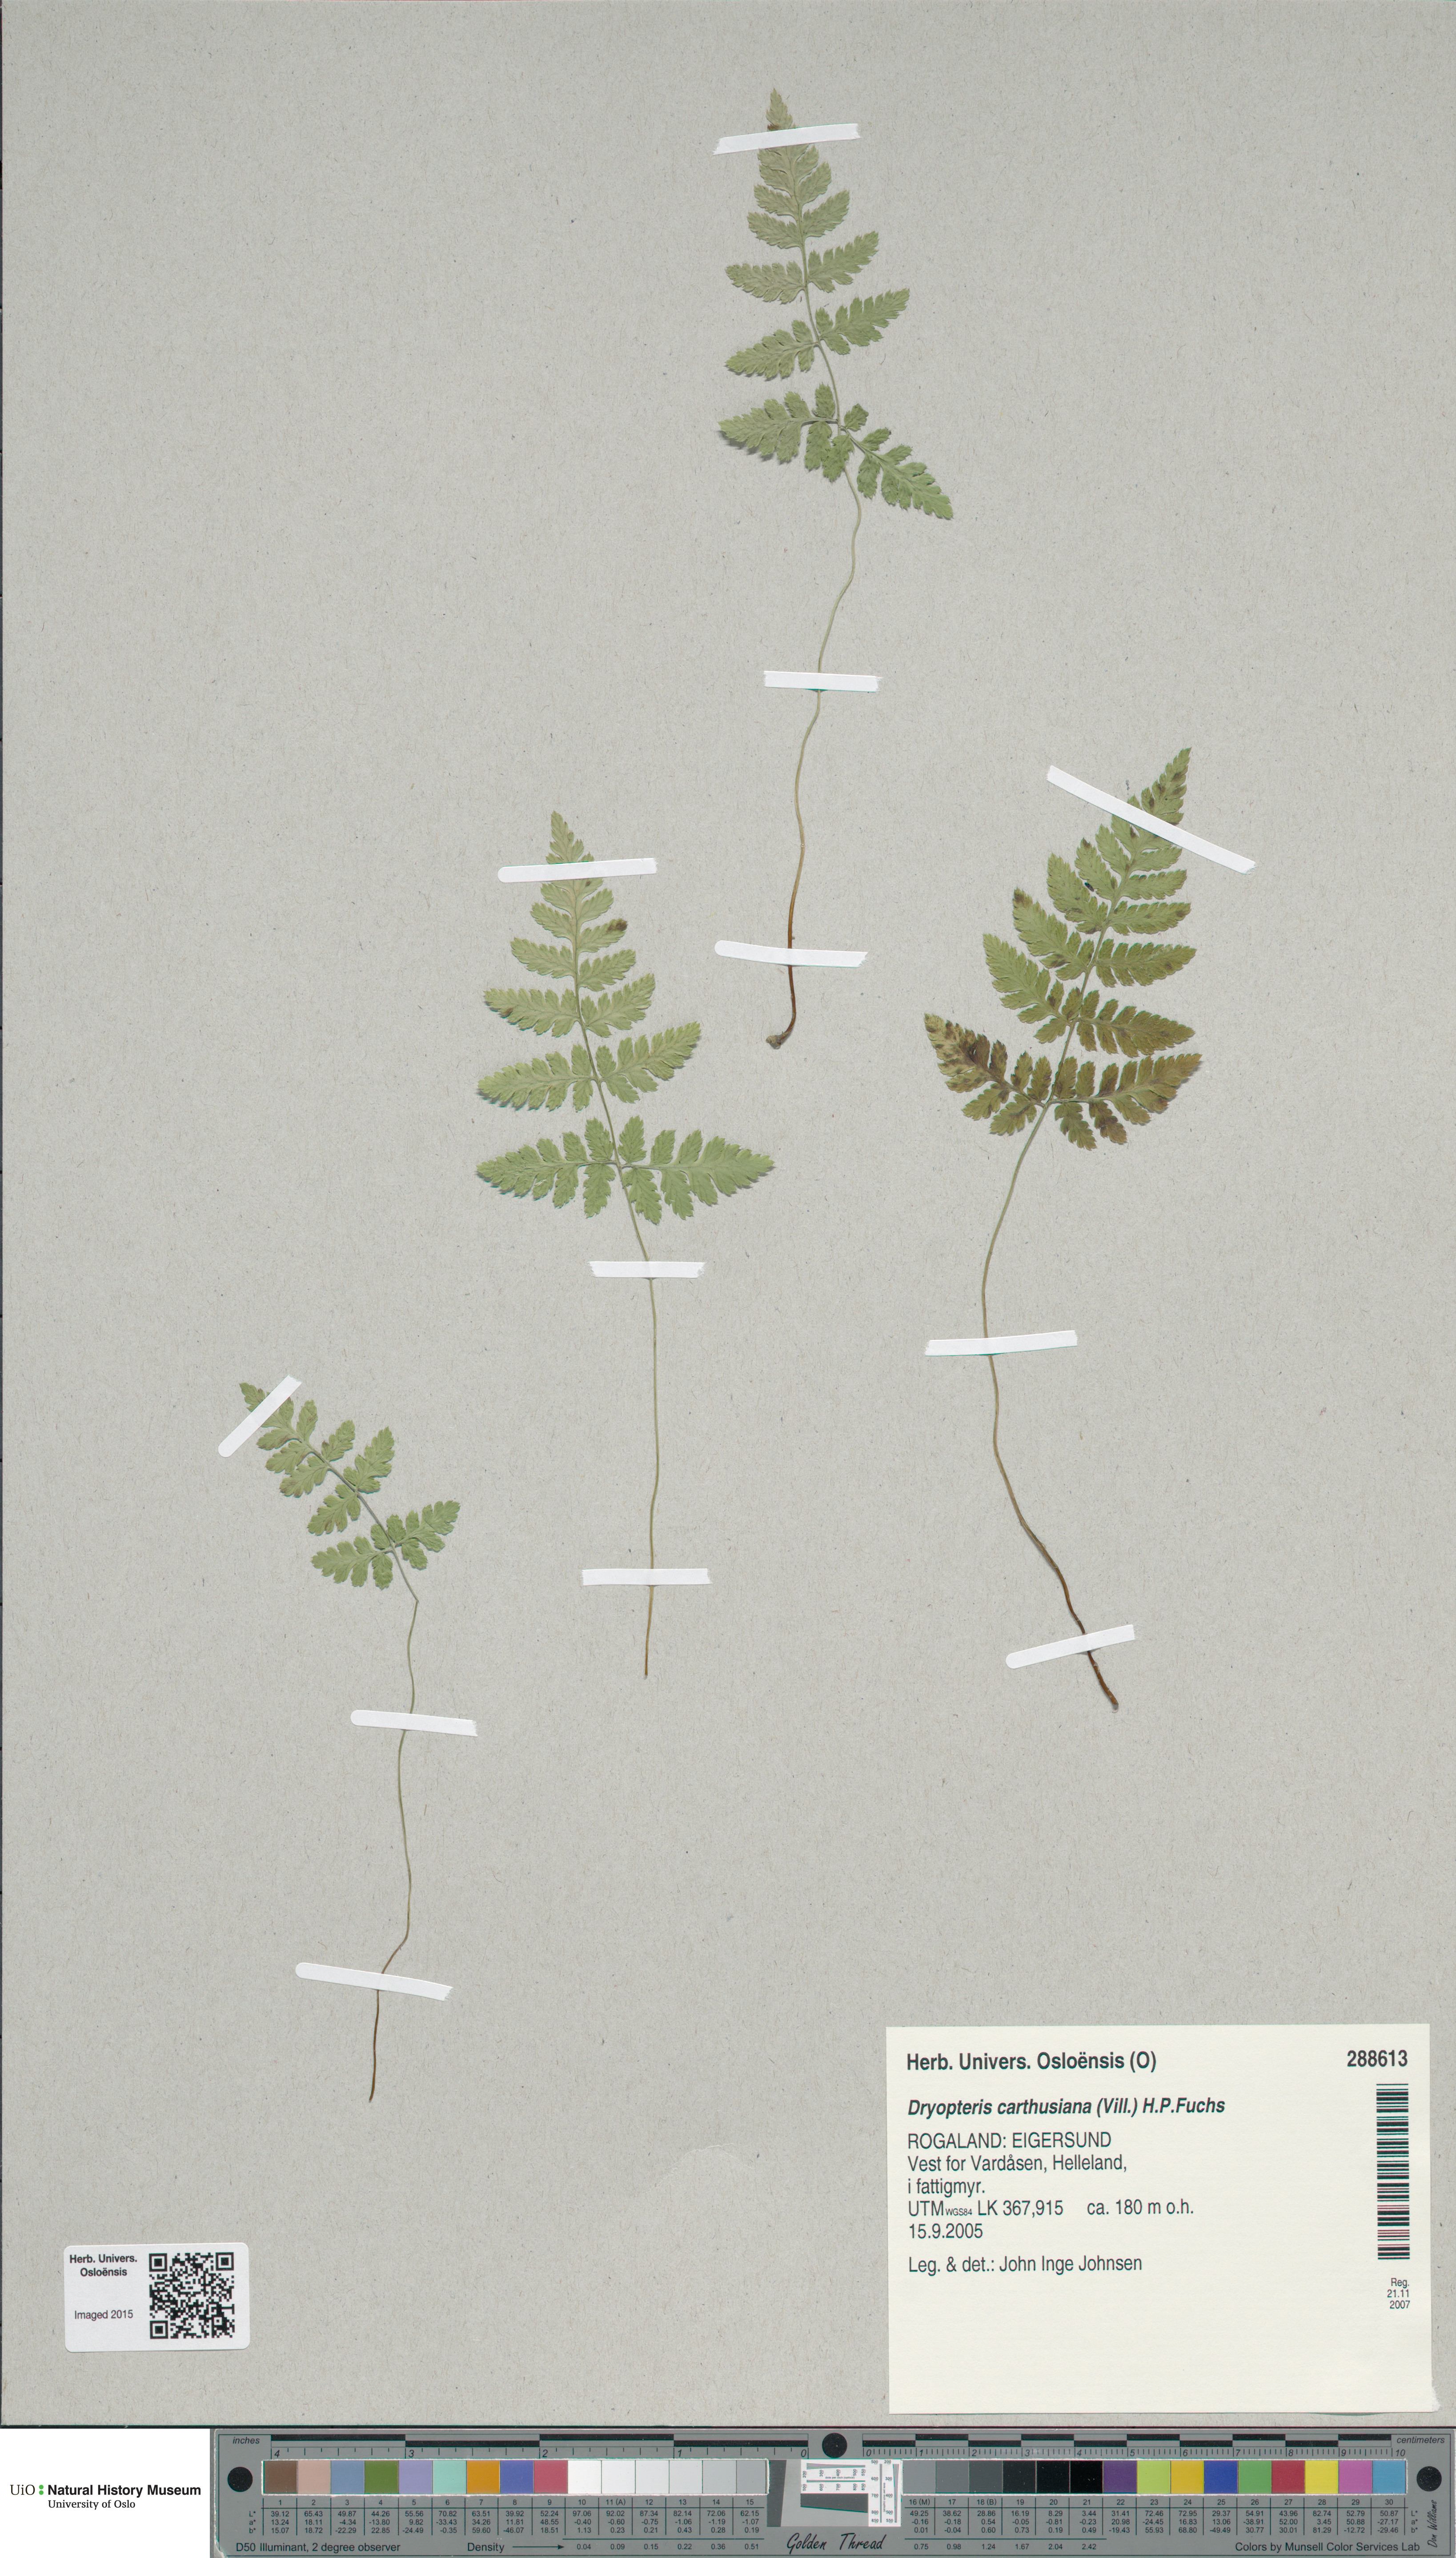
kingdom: Plantae
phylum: Tracheophyta
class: Polypodiopsida
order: Polypodiales
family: Dryopteridaceae
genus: Dryopteris
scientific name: Dryopteris carthusiana
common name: Narrow buckler-fern
